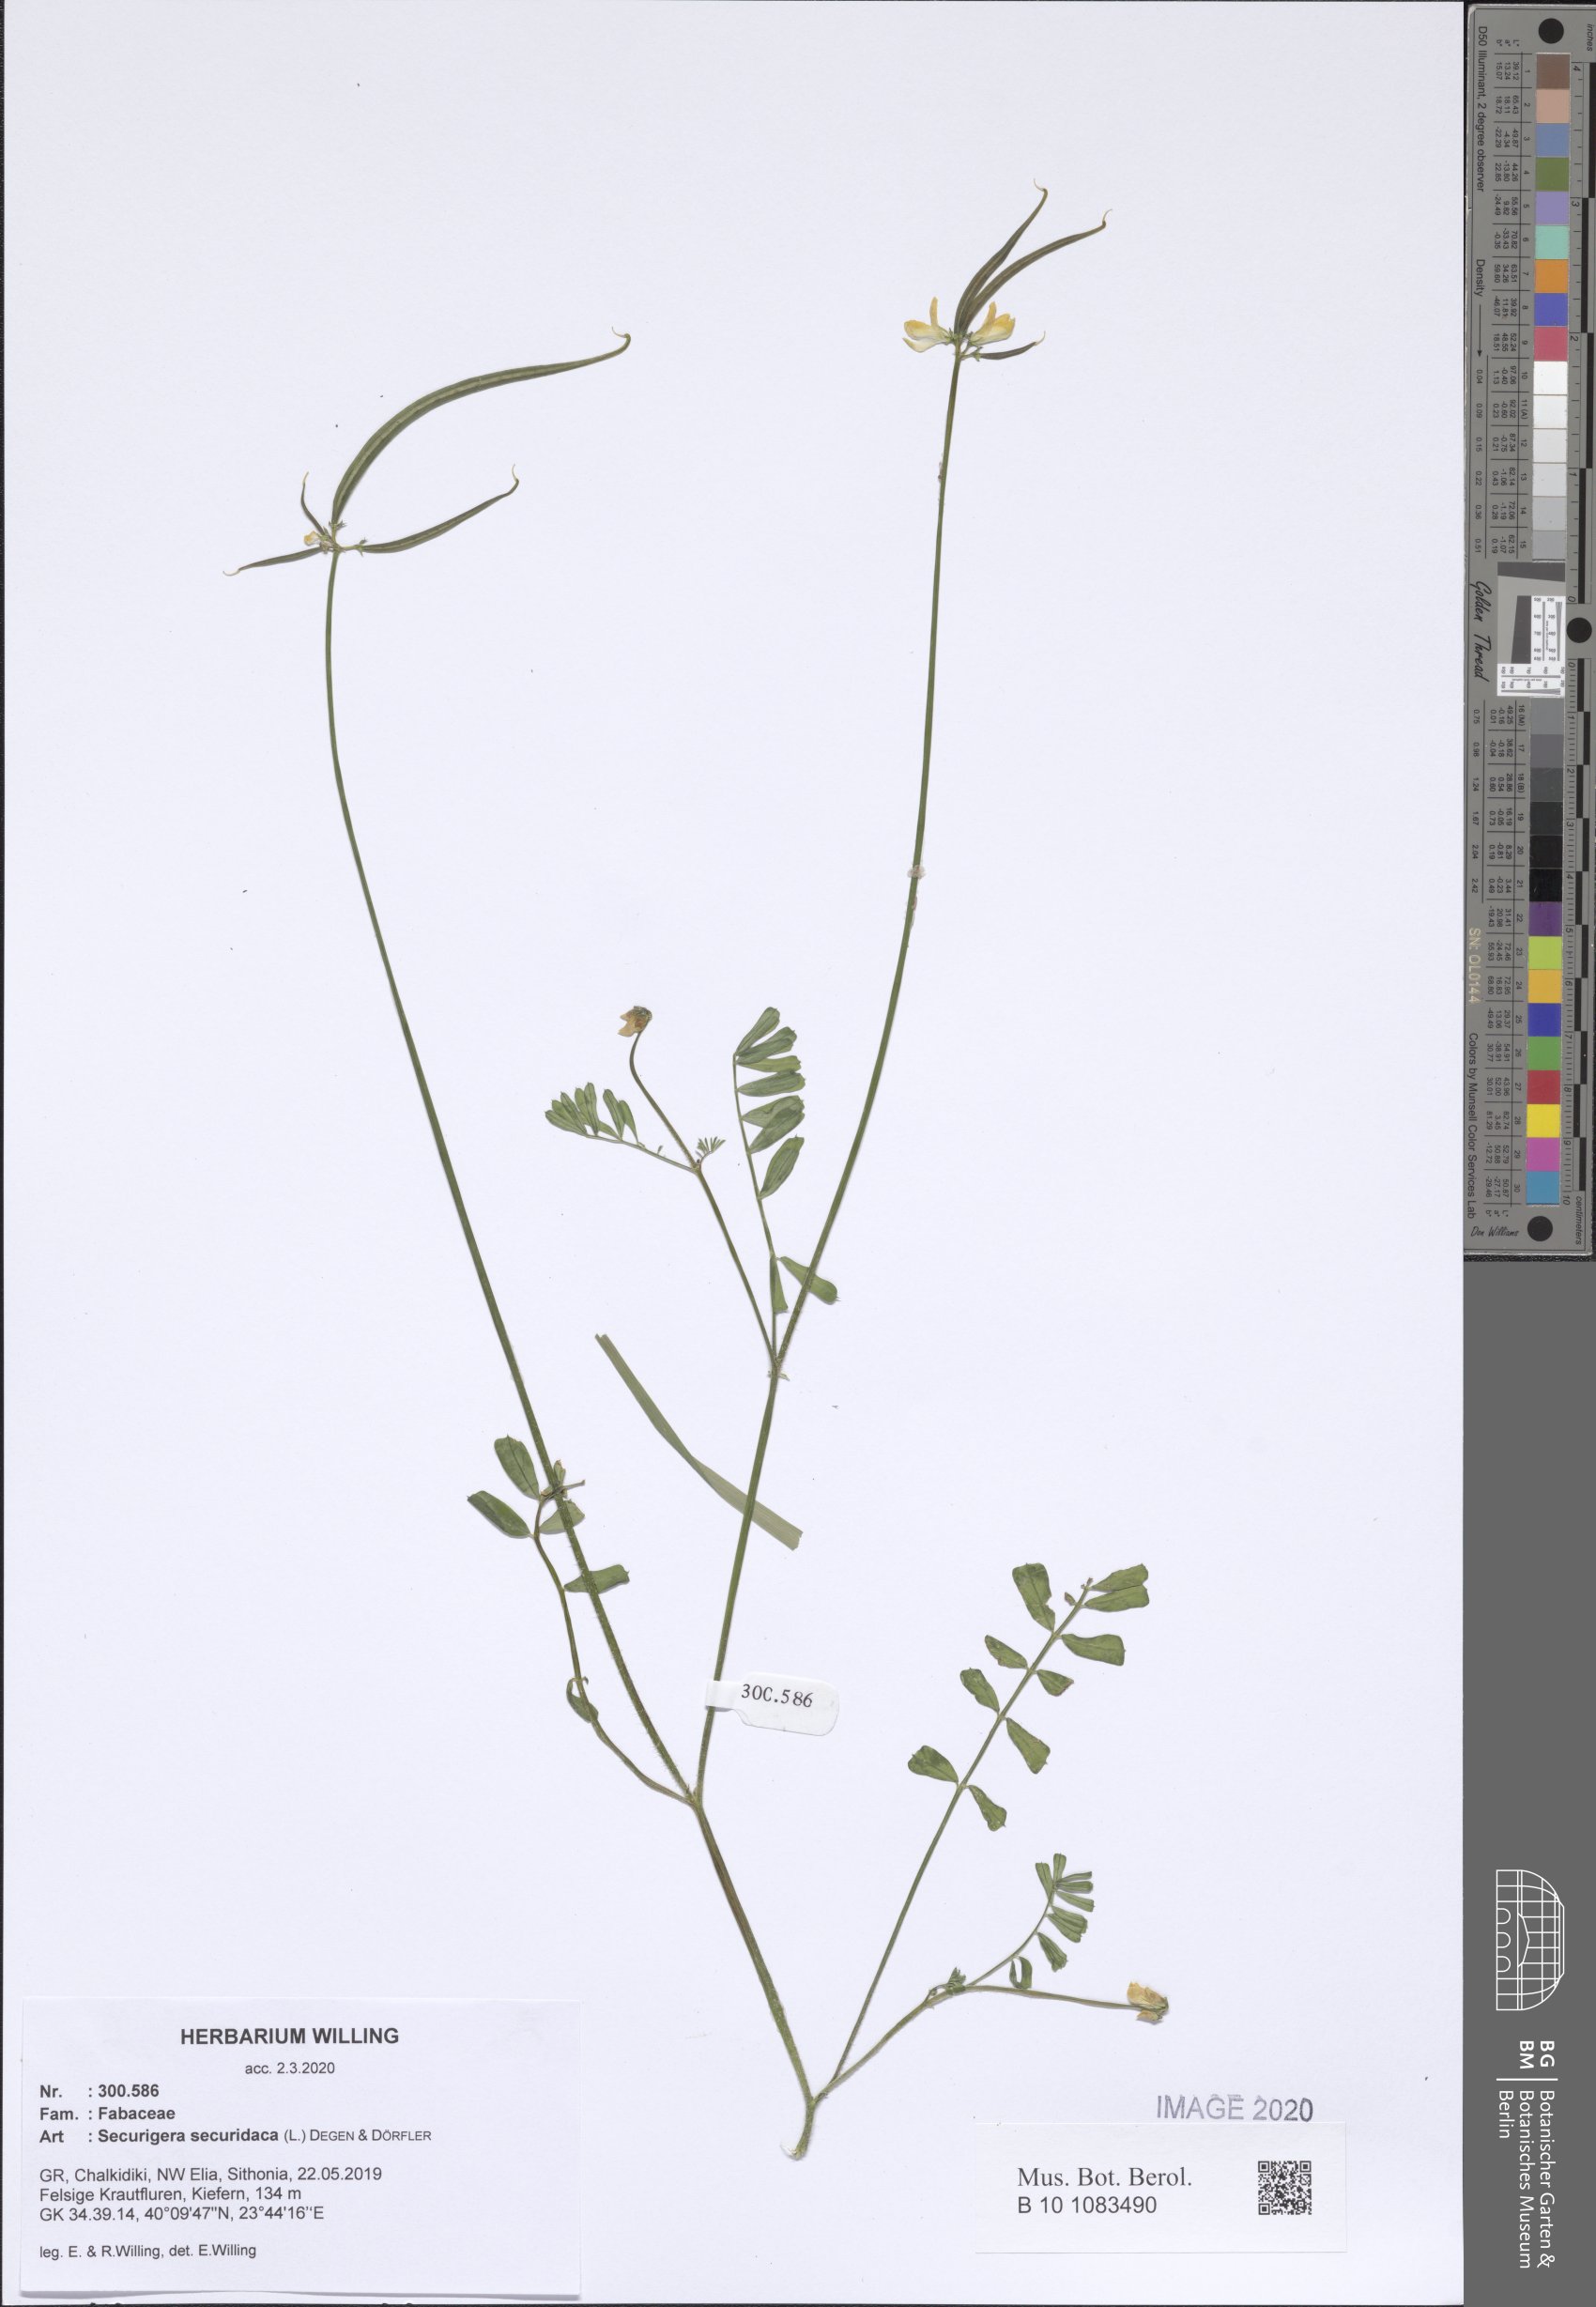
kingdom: Plantae
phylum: Tracheophyta
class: Magnoliopsida
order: Fabales
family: Fabaceae
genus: Coronilla
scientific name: Coronilla securidaca
